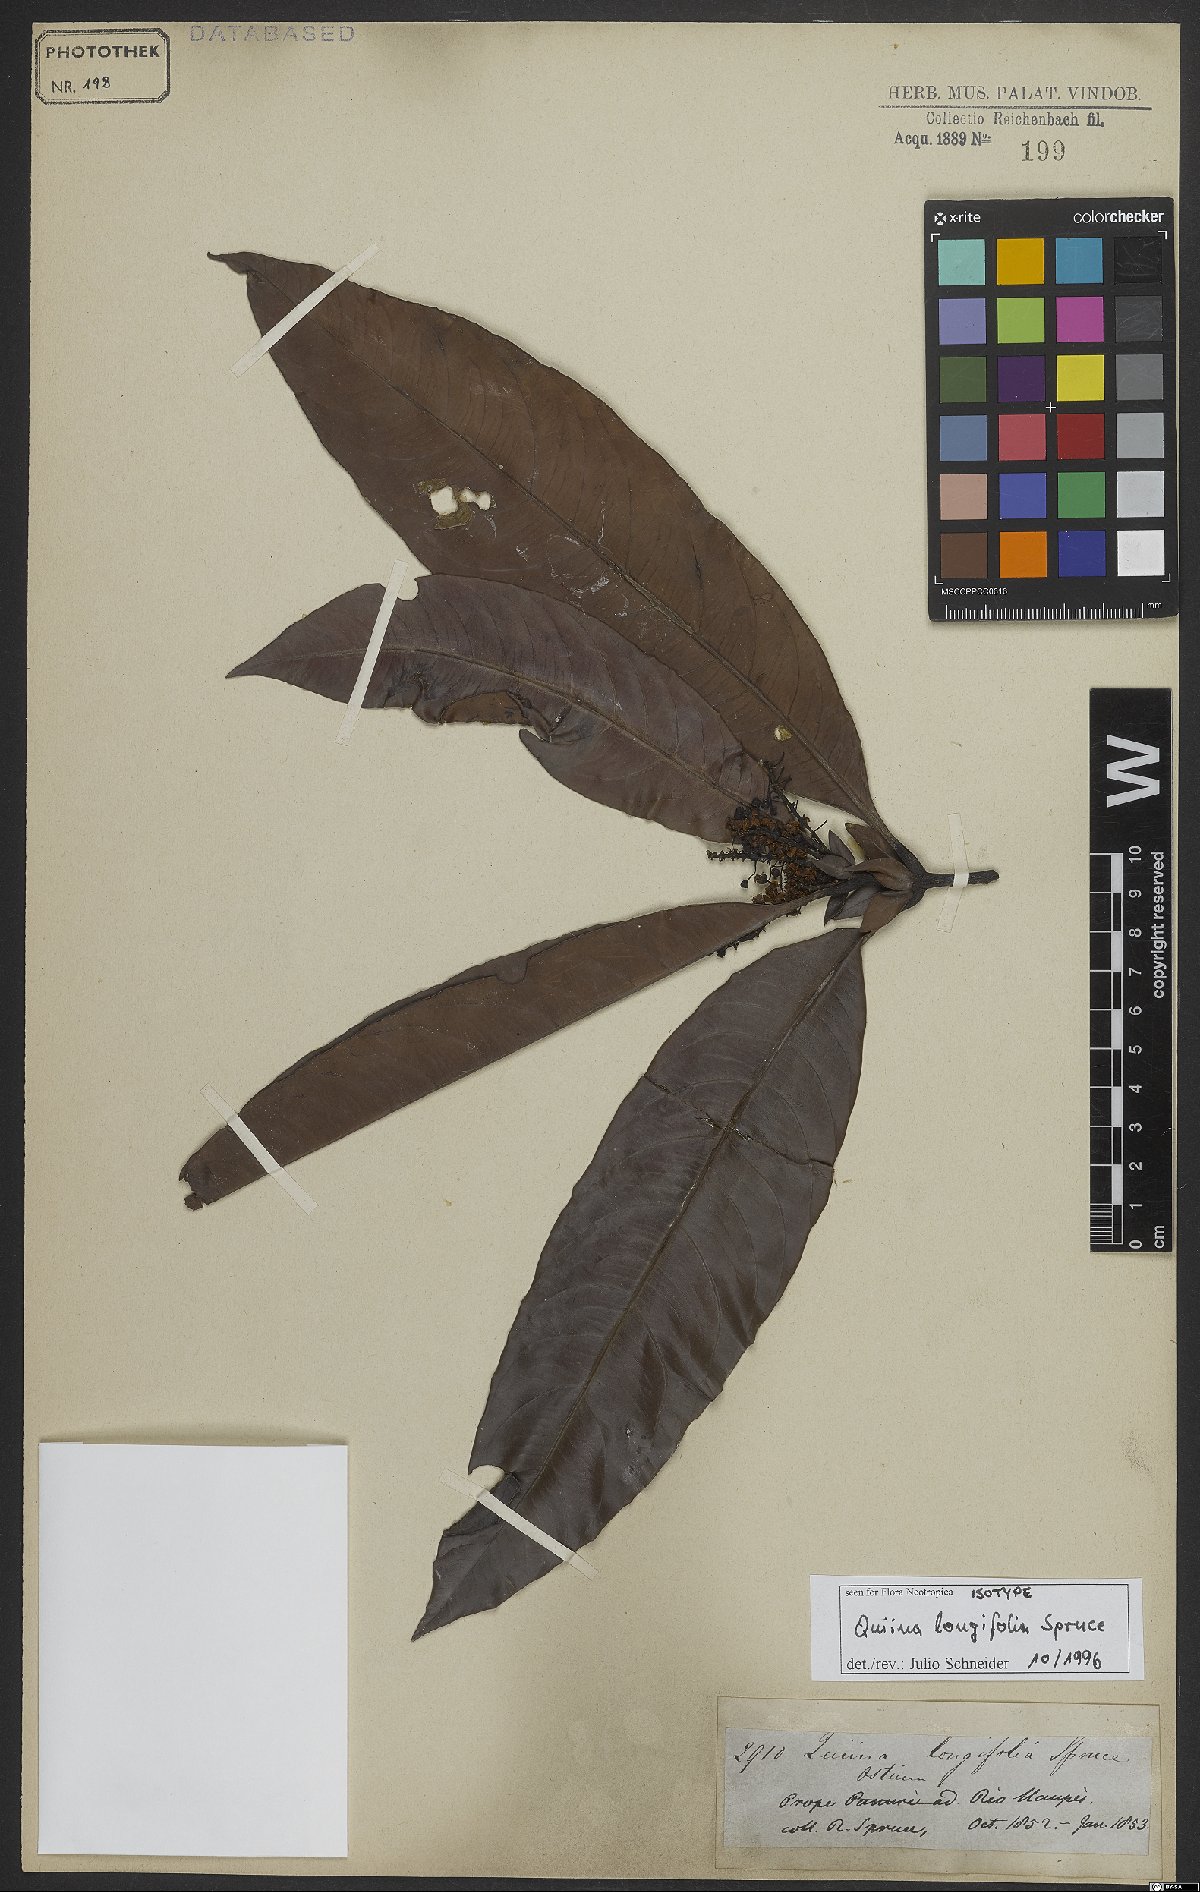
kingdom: Plantae
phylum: Tracheophyta
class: Magnoliopsida
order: Malpighiales
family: Quiinaceae
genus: Quiina
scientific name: Quiina longifolia
